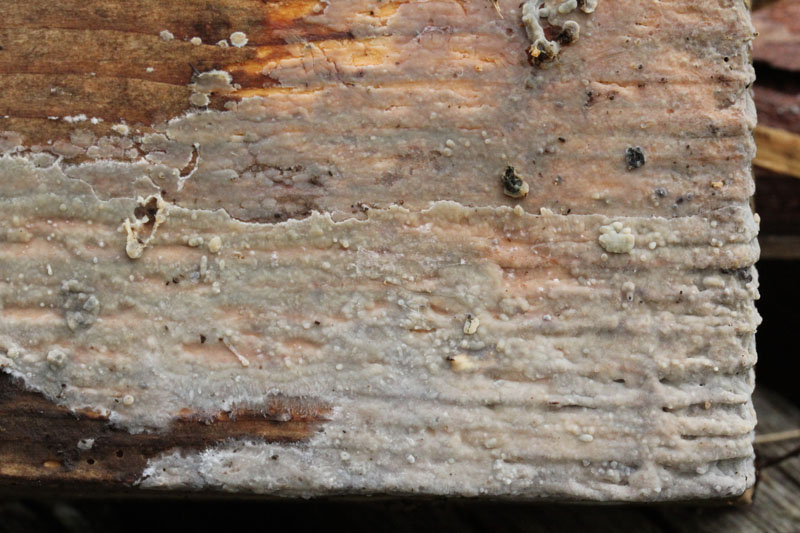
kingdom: Fungi
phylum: Basidiomycota
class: Agaricomycetes
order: Agaricales
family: Radulomycetaceae
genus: Radulomyces
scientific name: Radulomyces confluens
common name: glat naftalinskind
